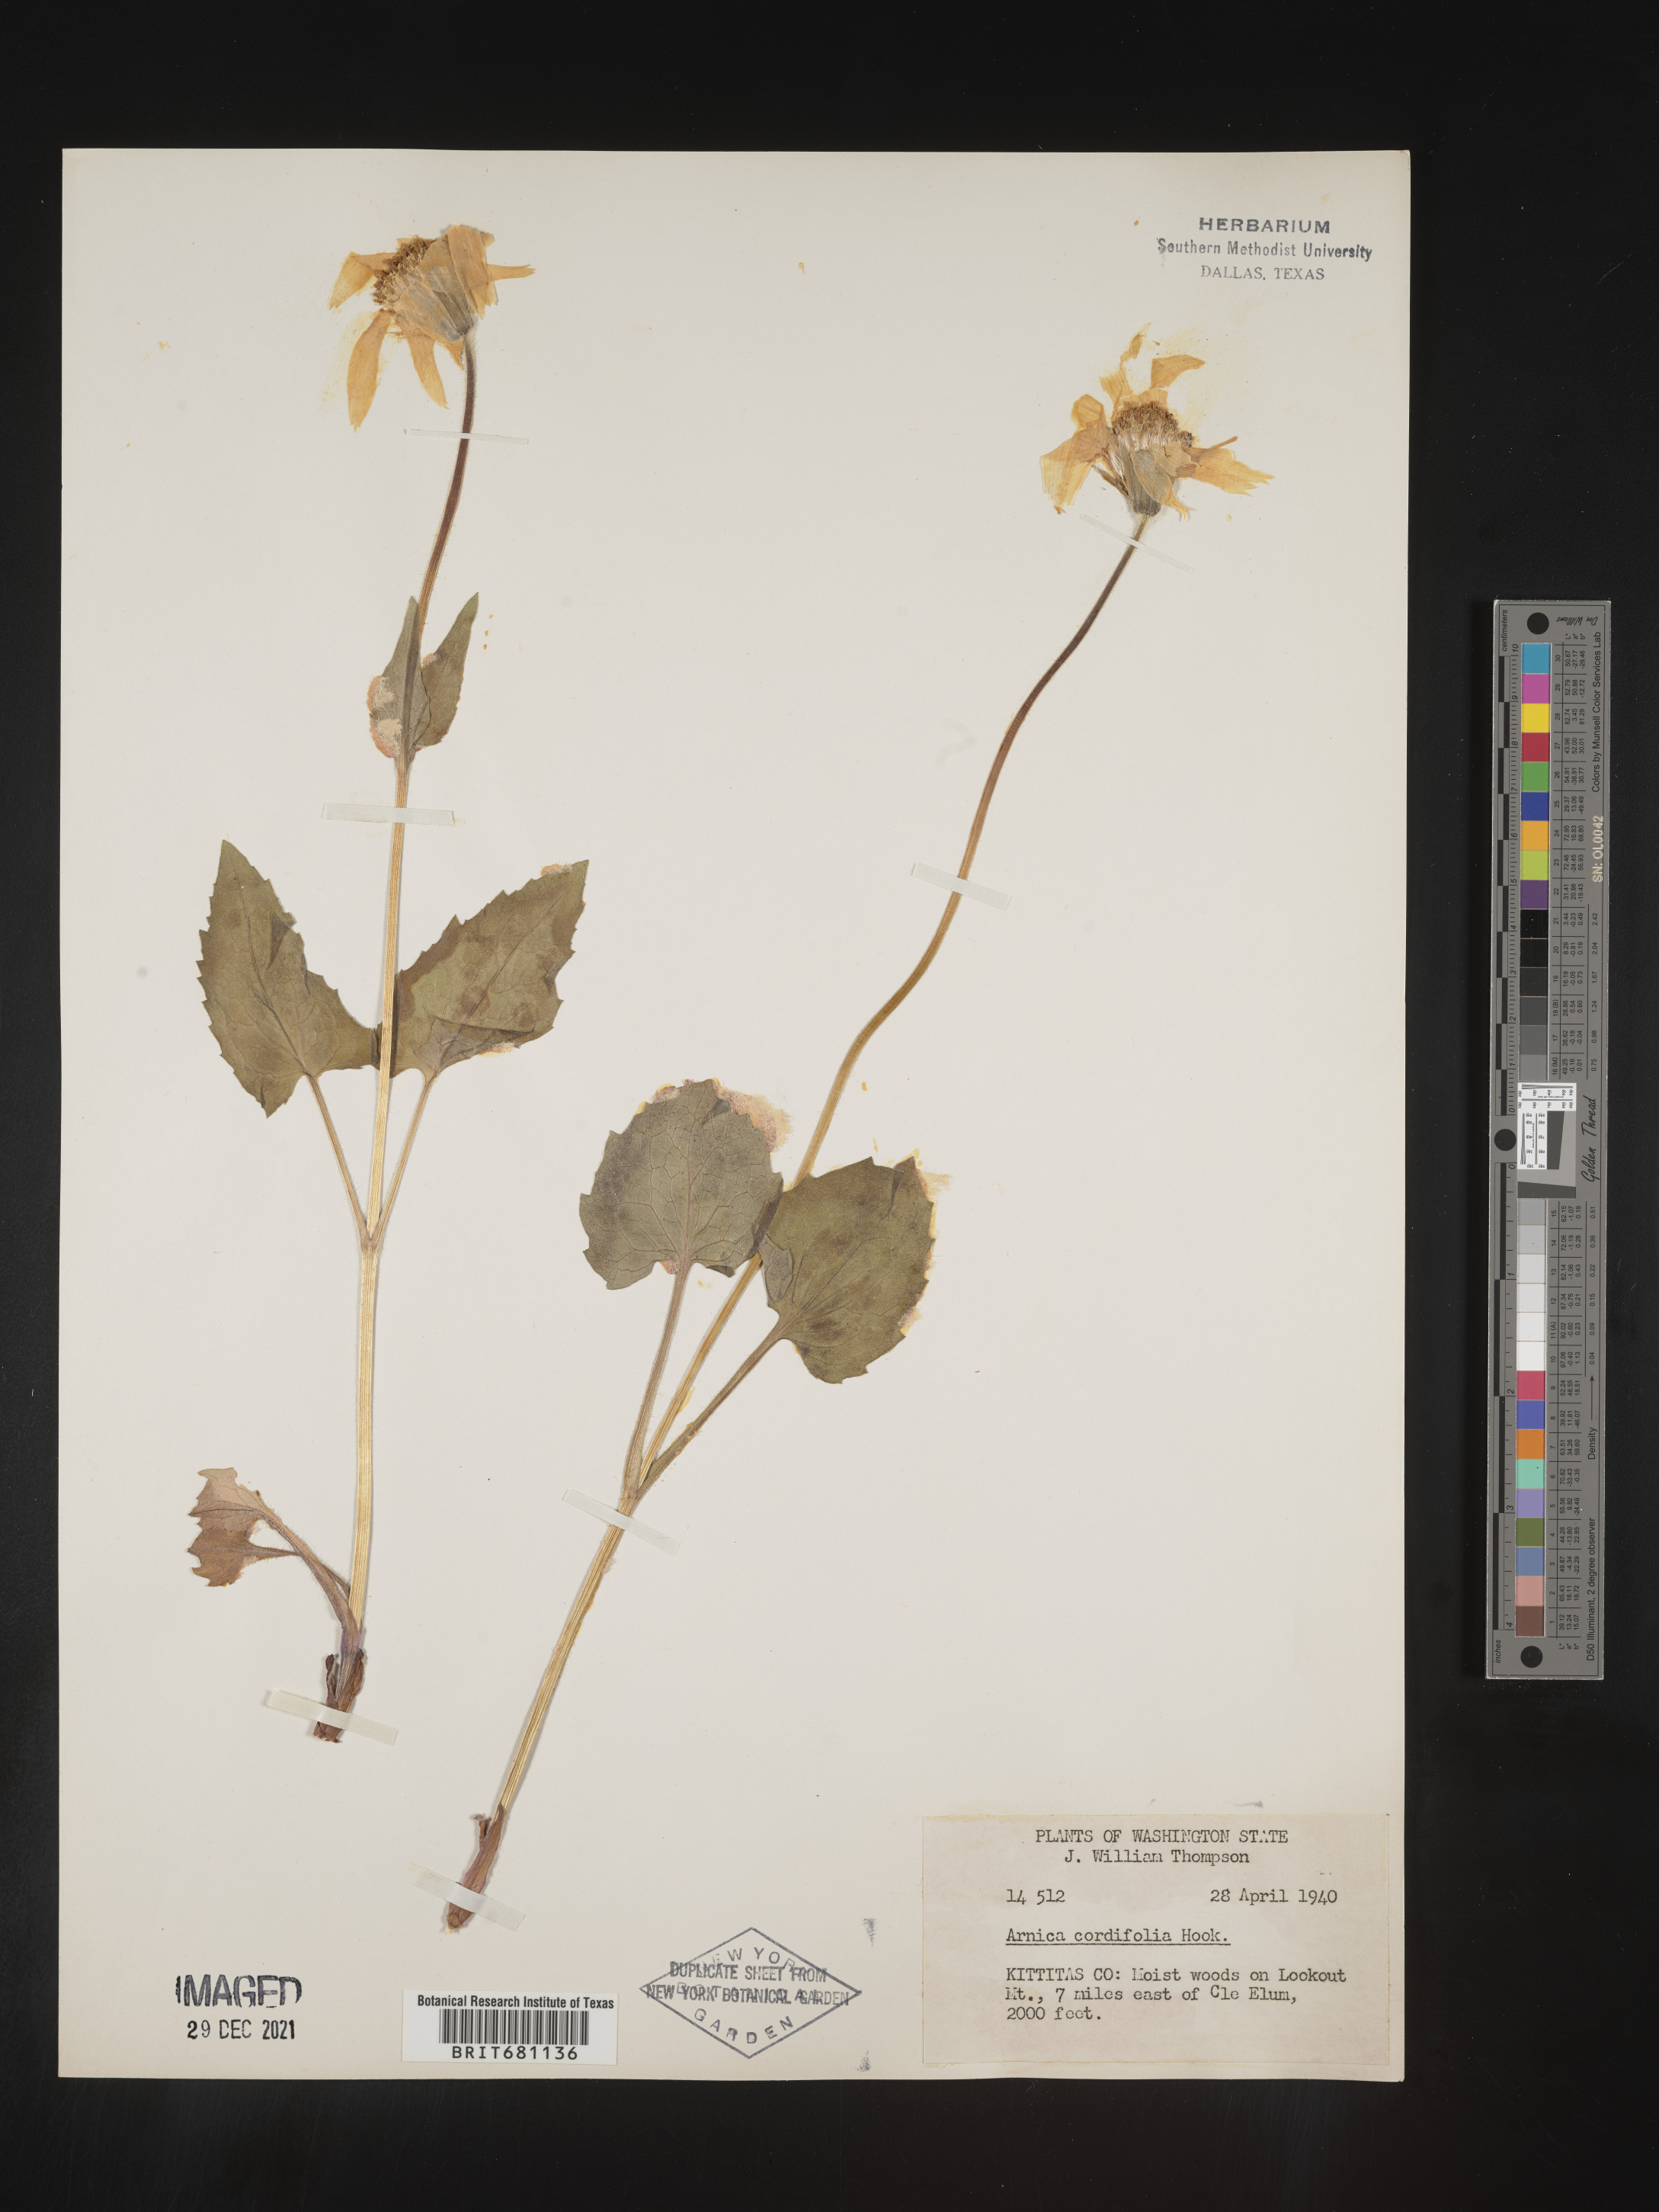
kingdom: Plantae
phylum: Tracheophyta
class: Magnoliopsida
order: Asterales
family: Asteraceae
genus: Arnica
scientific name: Arnica cordifolia
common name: Heart-leaf arnica
